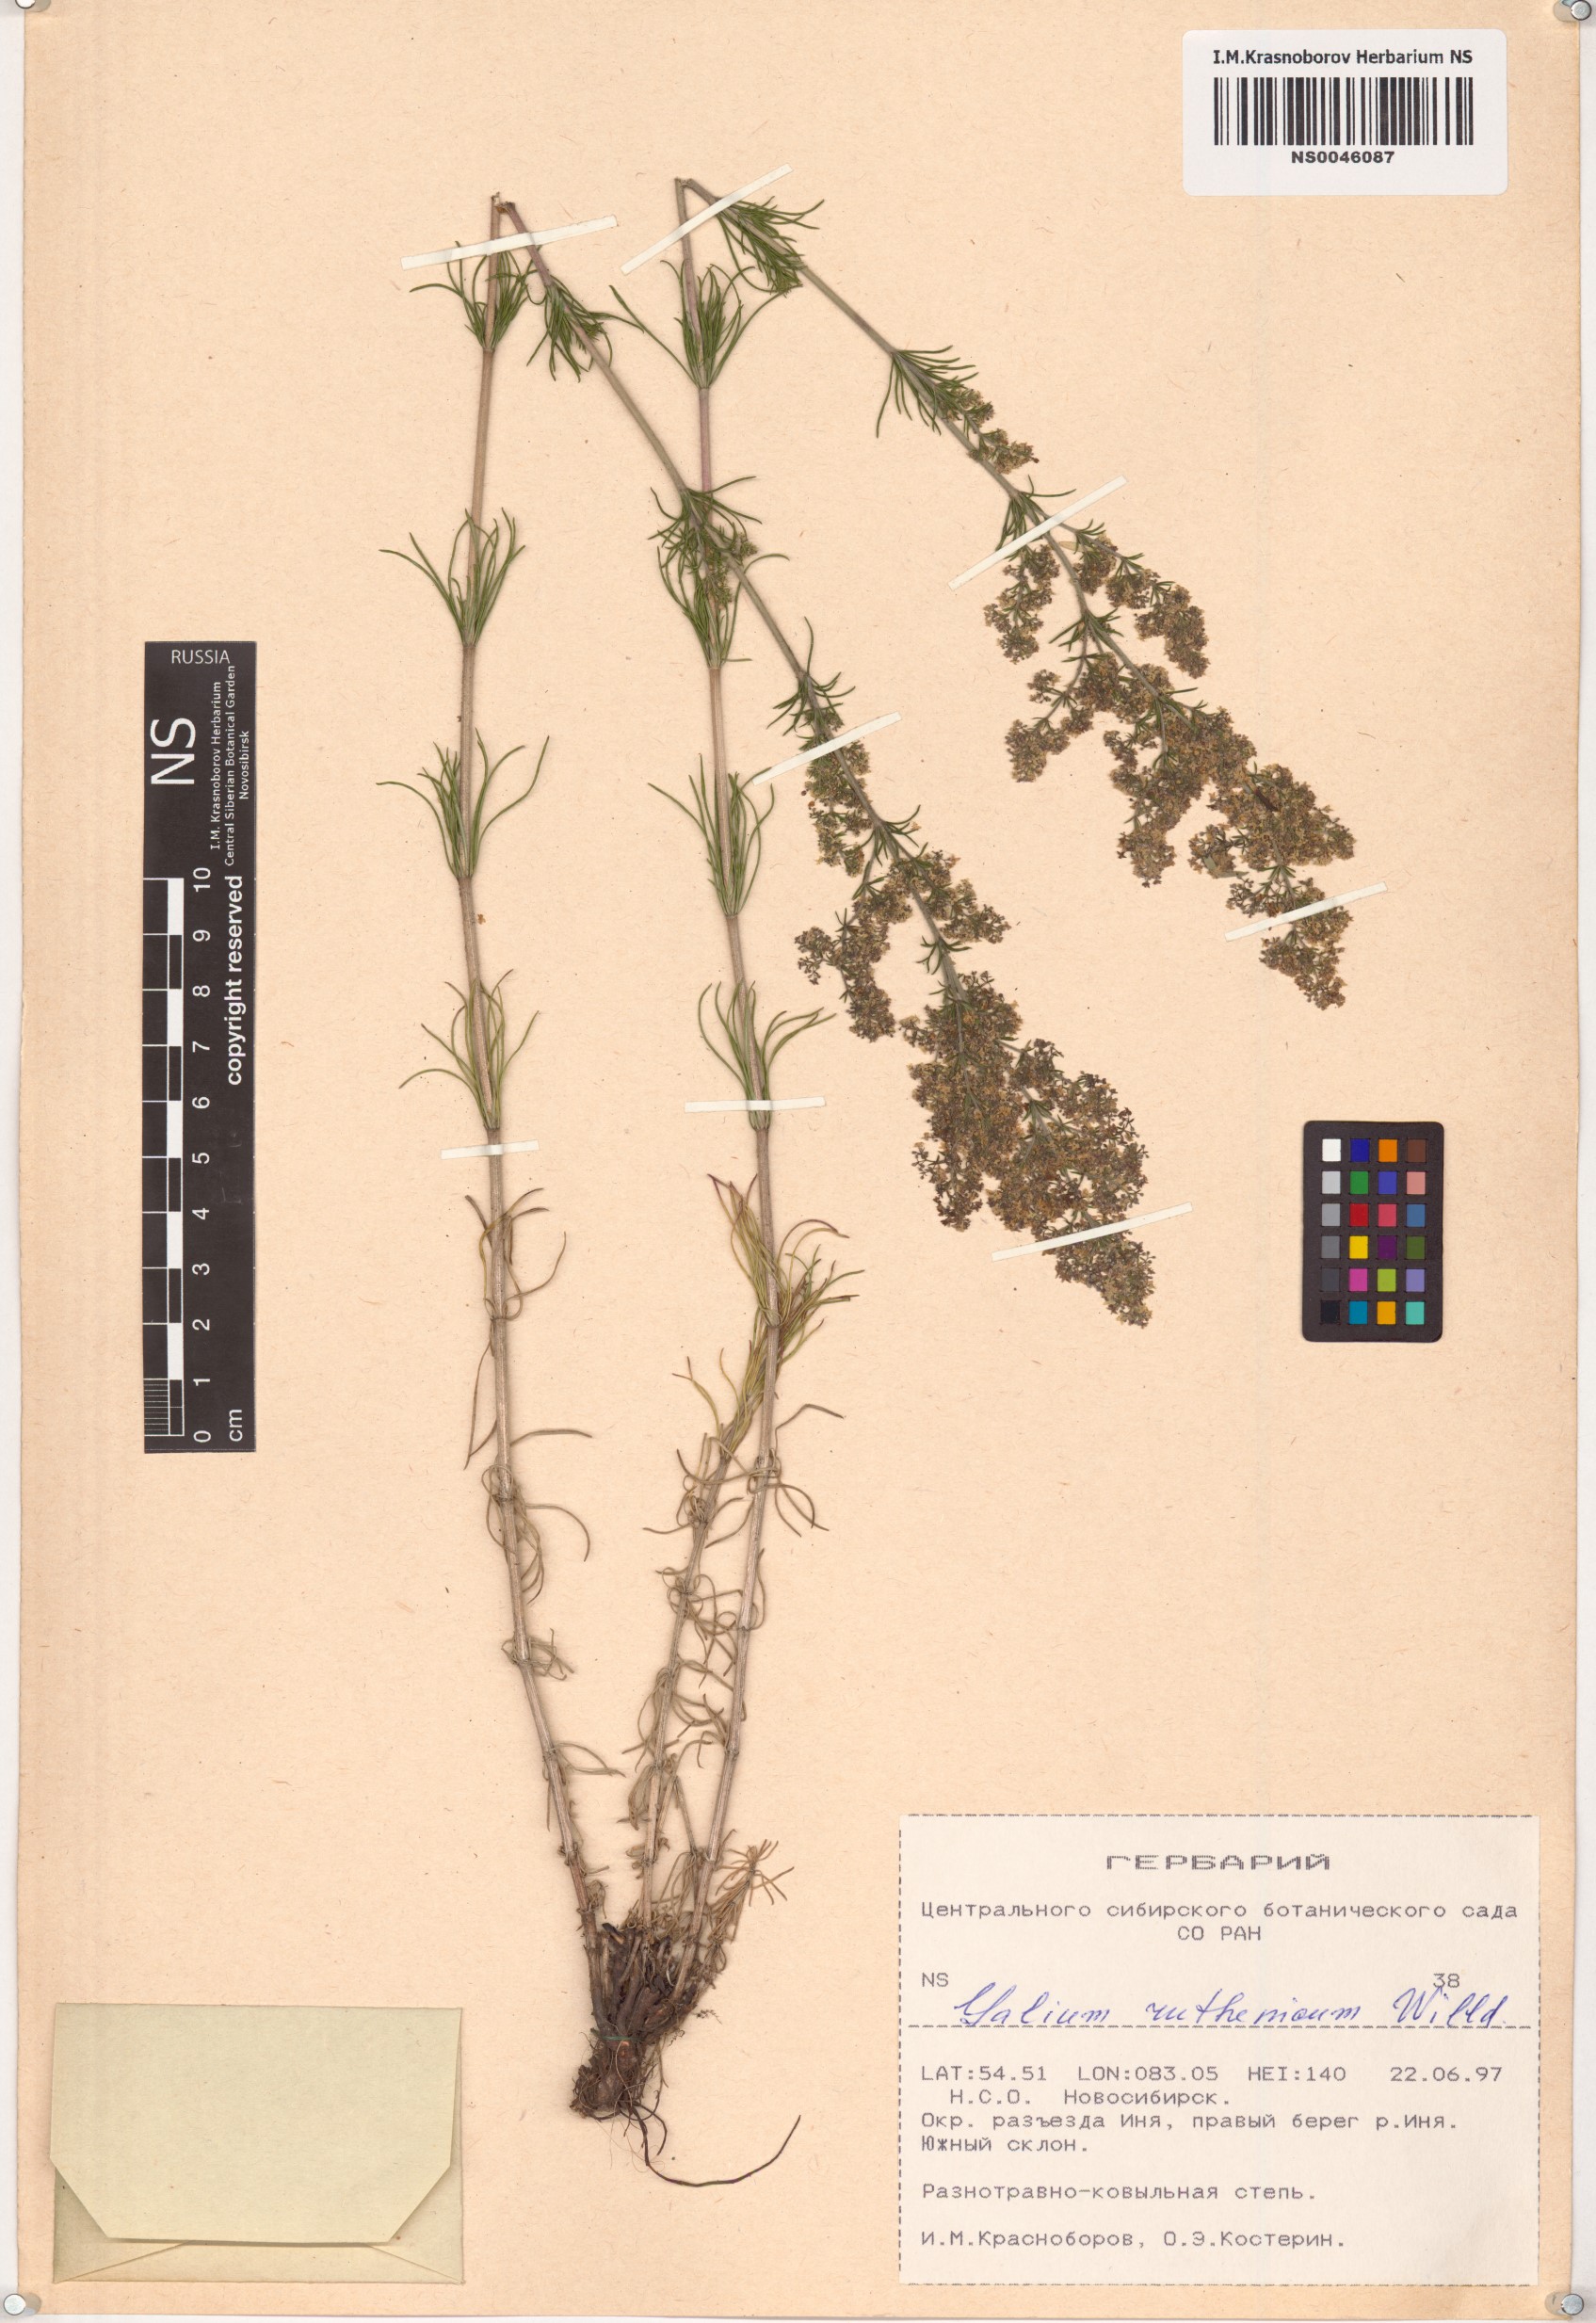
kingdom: Plantae
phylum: Tracheophyta
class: Magnoliopsida
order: Gentianales
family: Rubiaceae
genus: Galium
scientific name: Galium verum
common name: Lady's bedstraw
